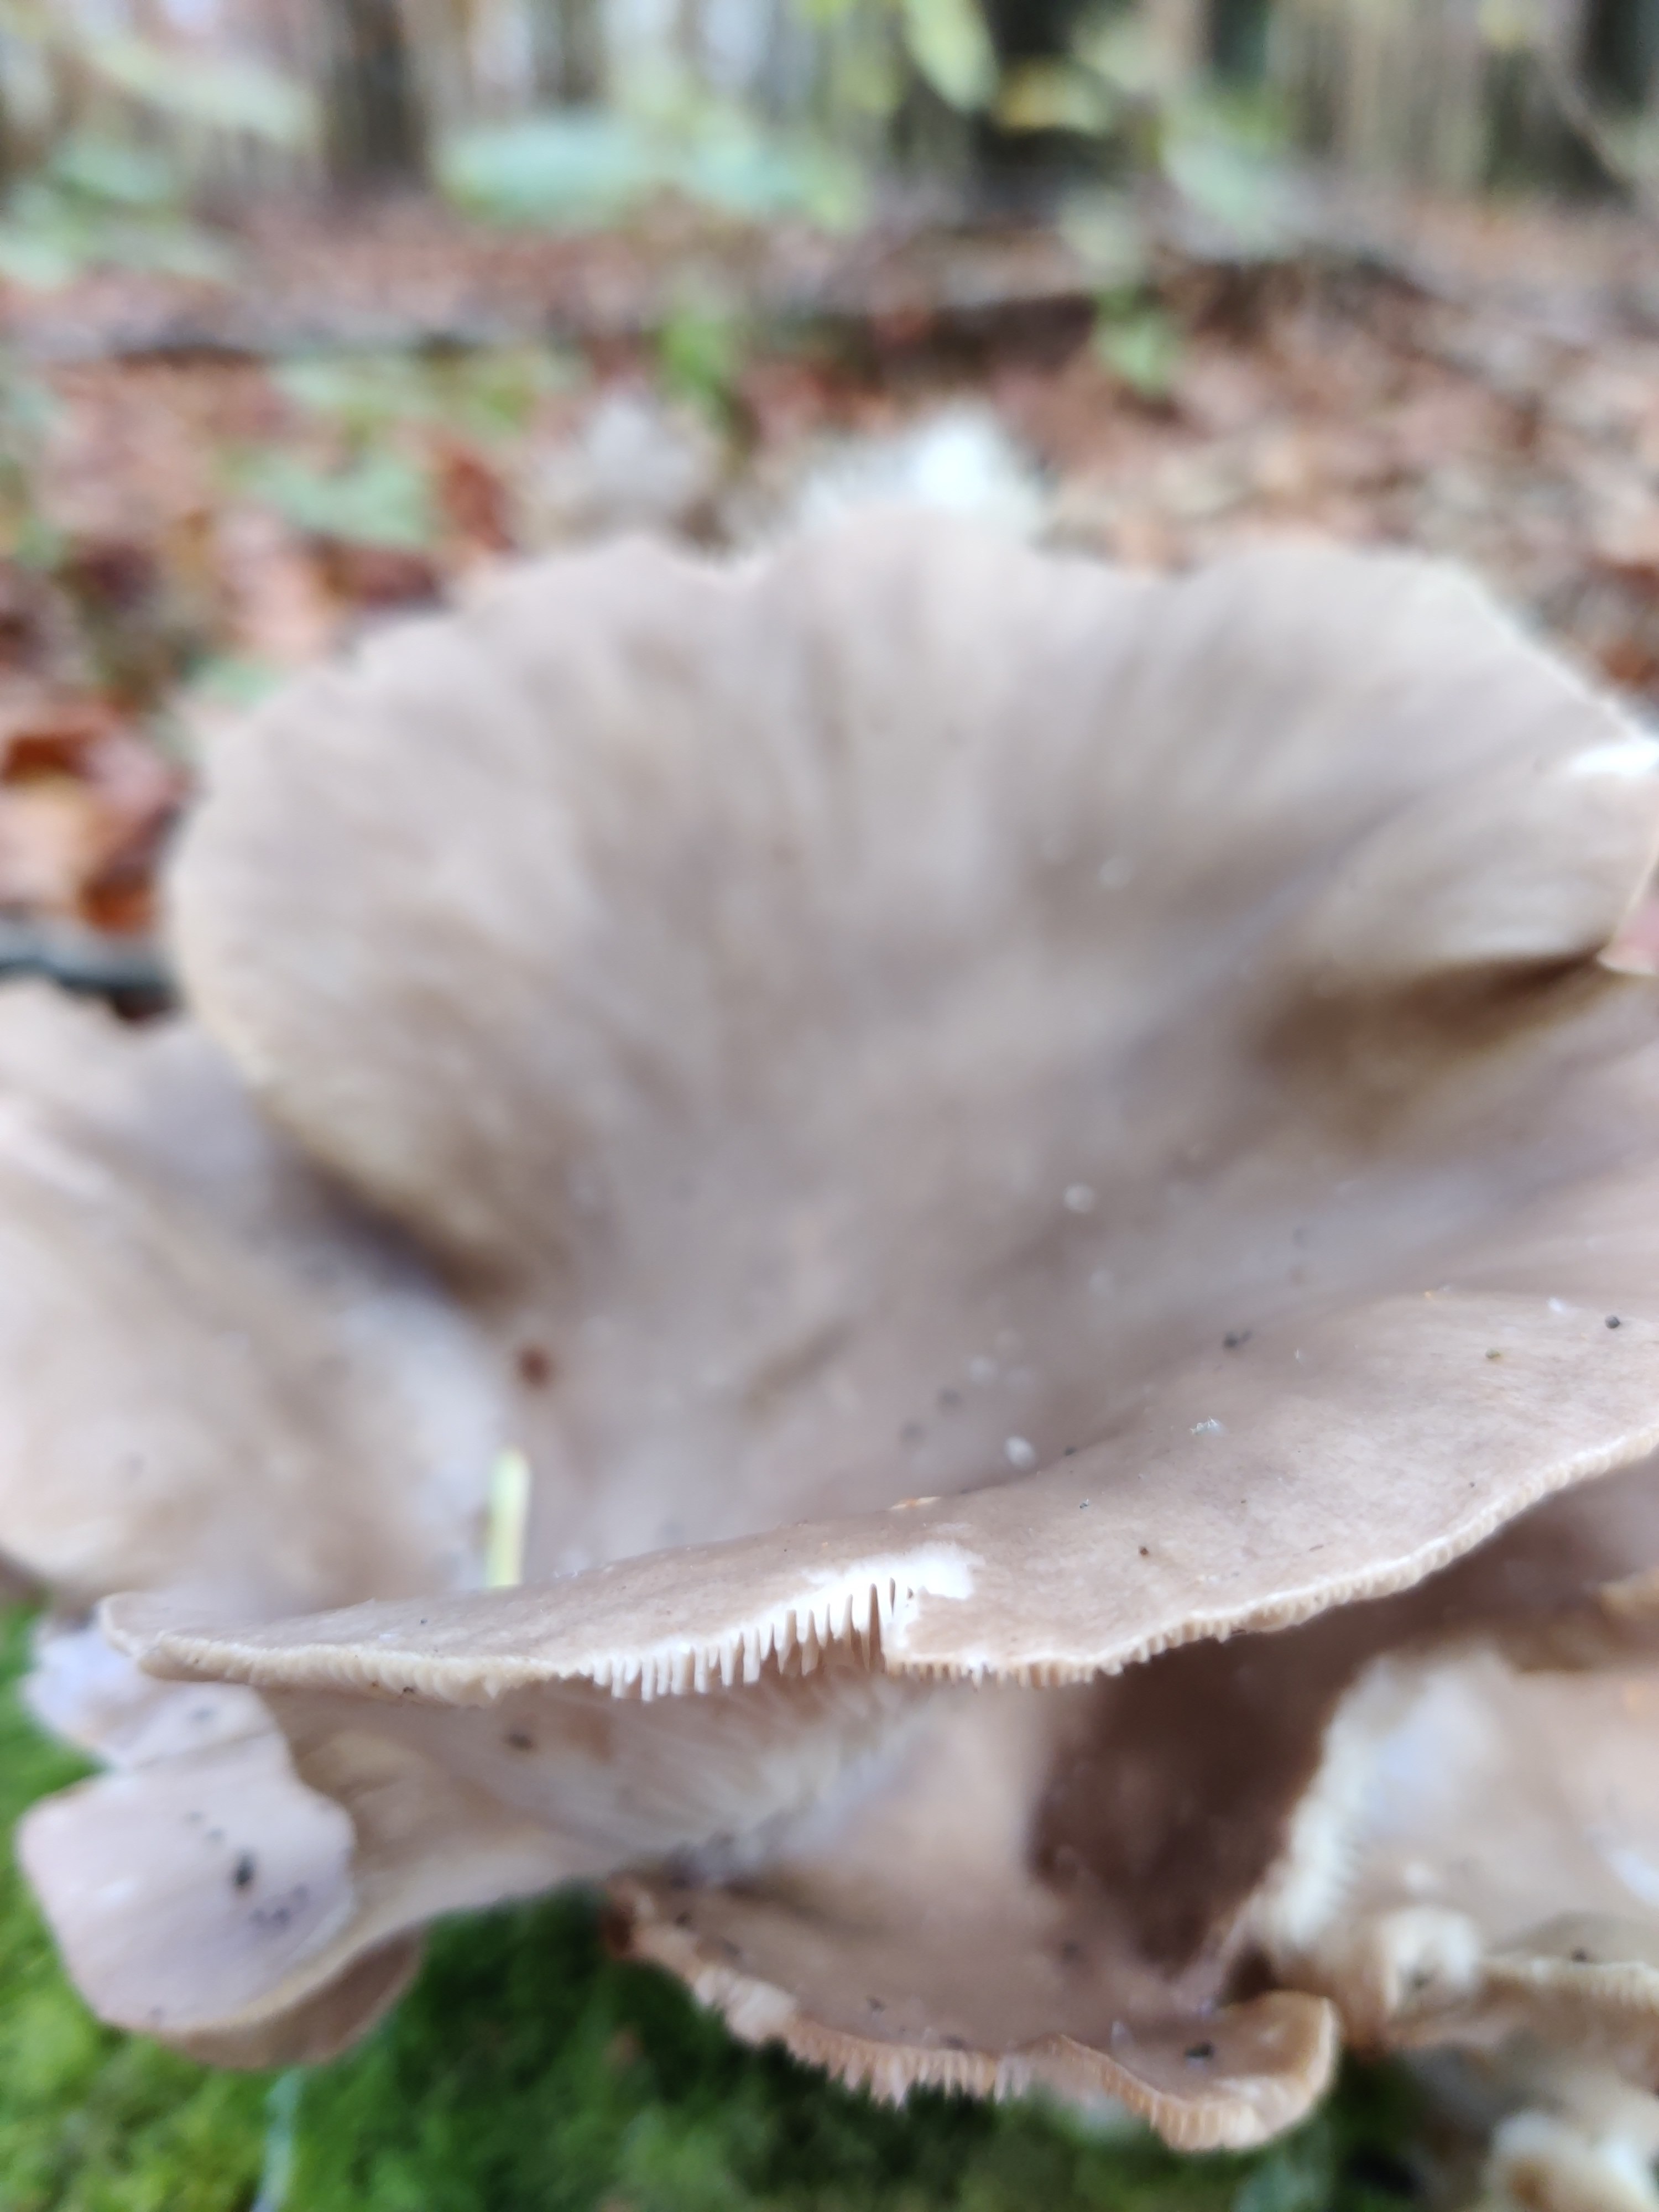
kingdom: Fungi
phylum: Basidiomycota
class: Agaricomycetes
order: Agaricales
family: Pleurotaceae
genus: Pleurotus
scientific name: Pleurotus ostreatus
